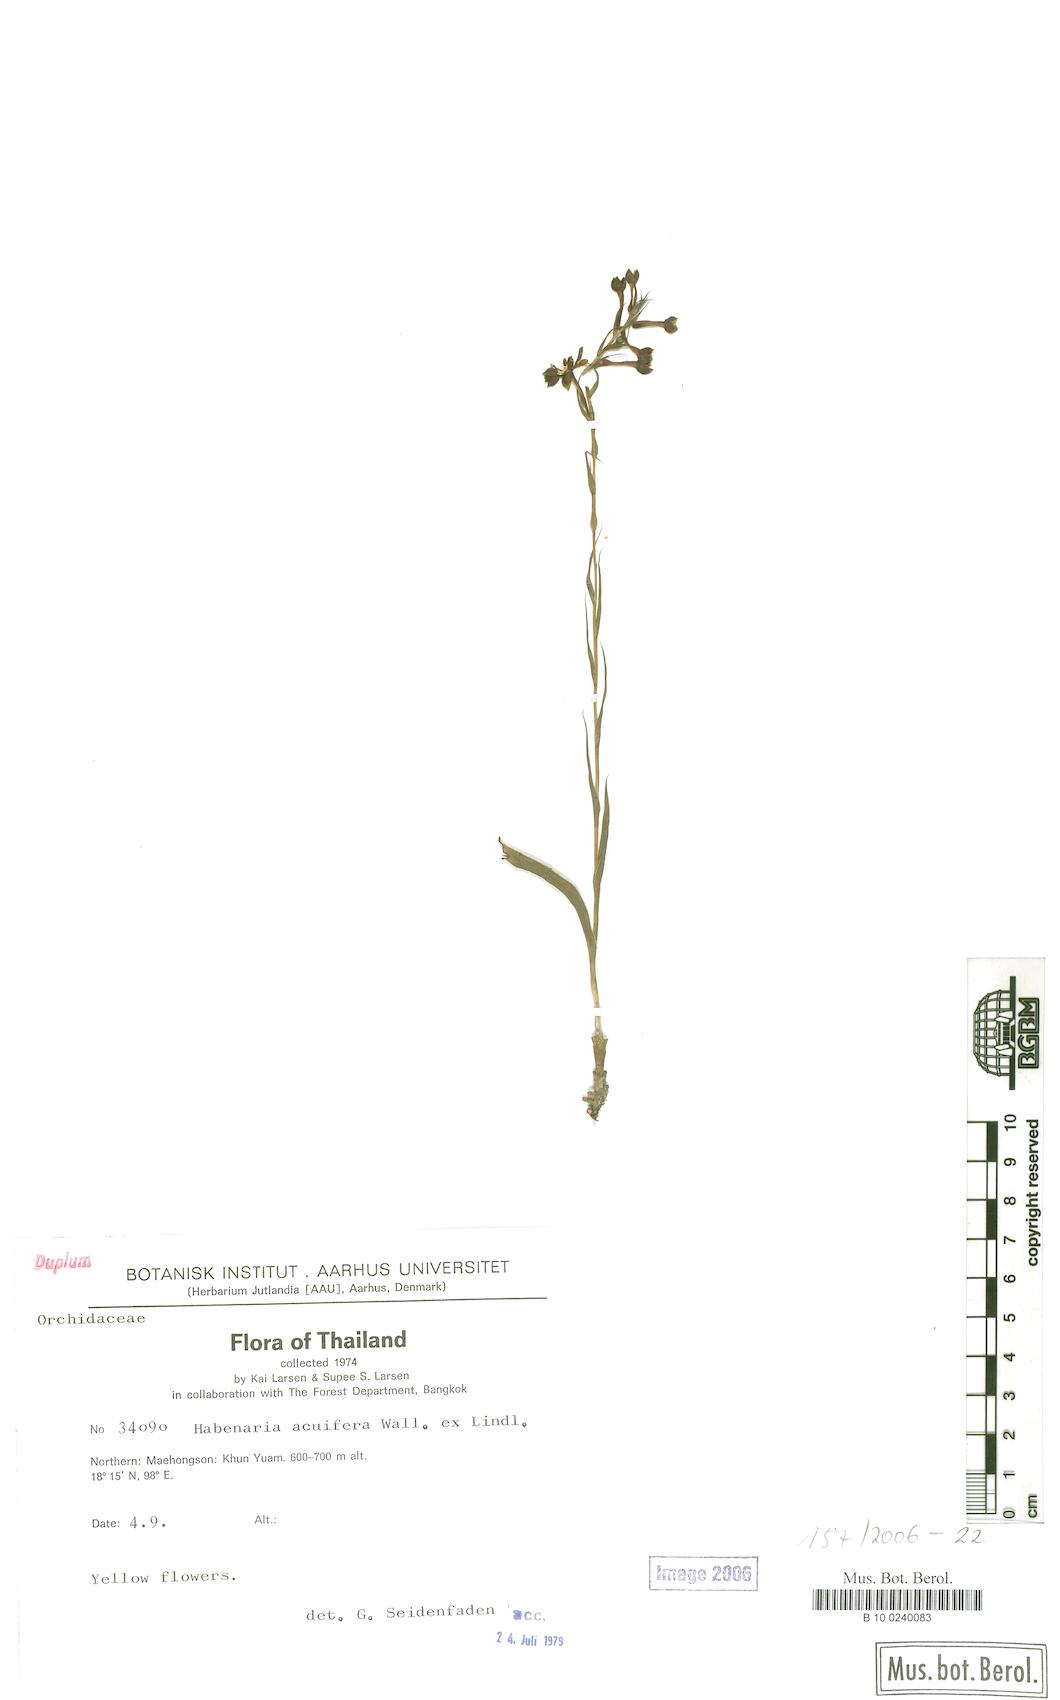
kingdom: Plantae
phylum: Tracheophyta
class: Liliopsida
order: Asparagales
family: Orchidaceae
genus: Habenaria
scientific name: Habenaria acuifera
